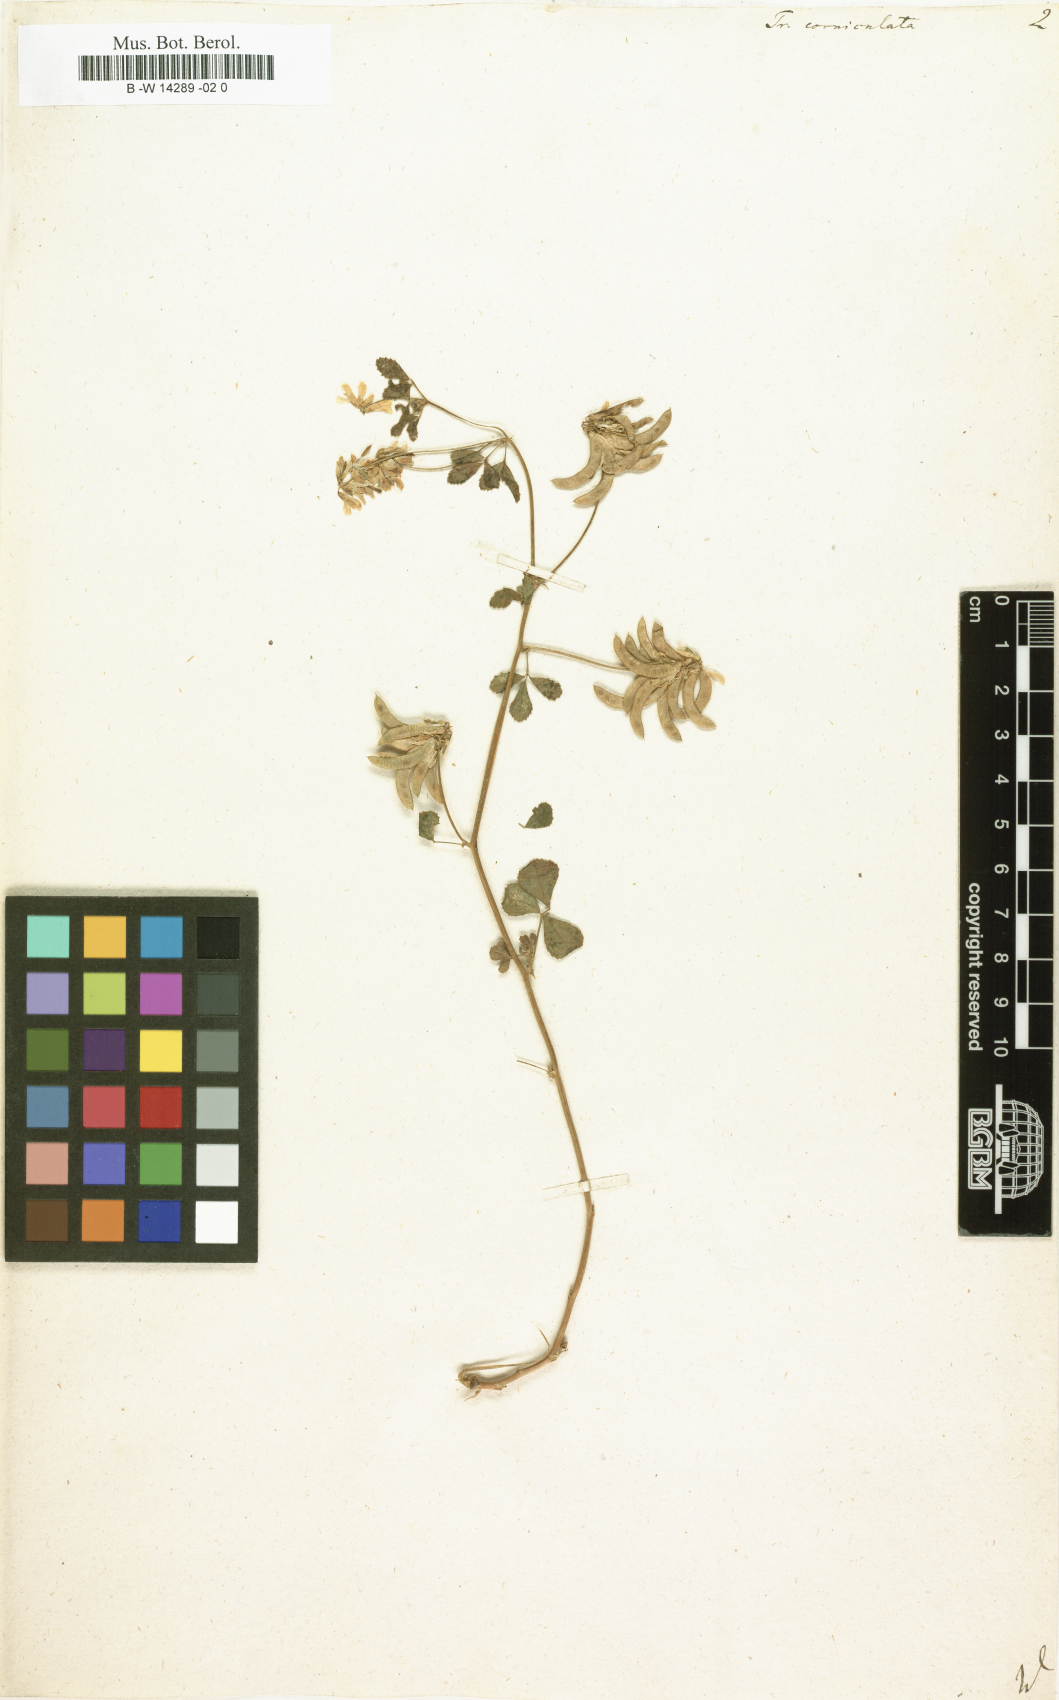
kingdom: Plantae
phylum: Tracheophyta
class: Magnoliopsida
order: Fabales
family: Fabaceae
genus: Trigonella
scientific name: Trigonella corniculata
